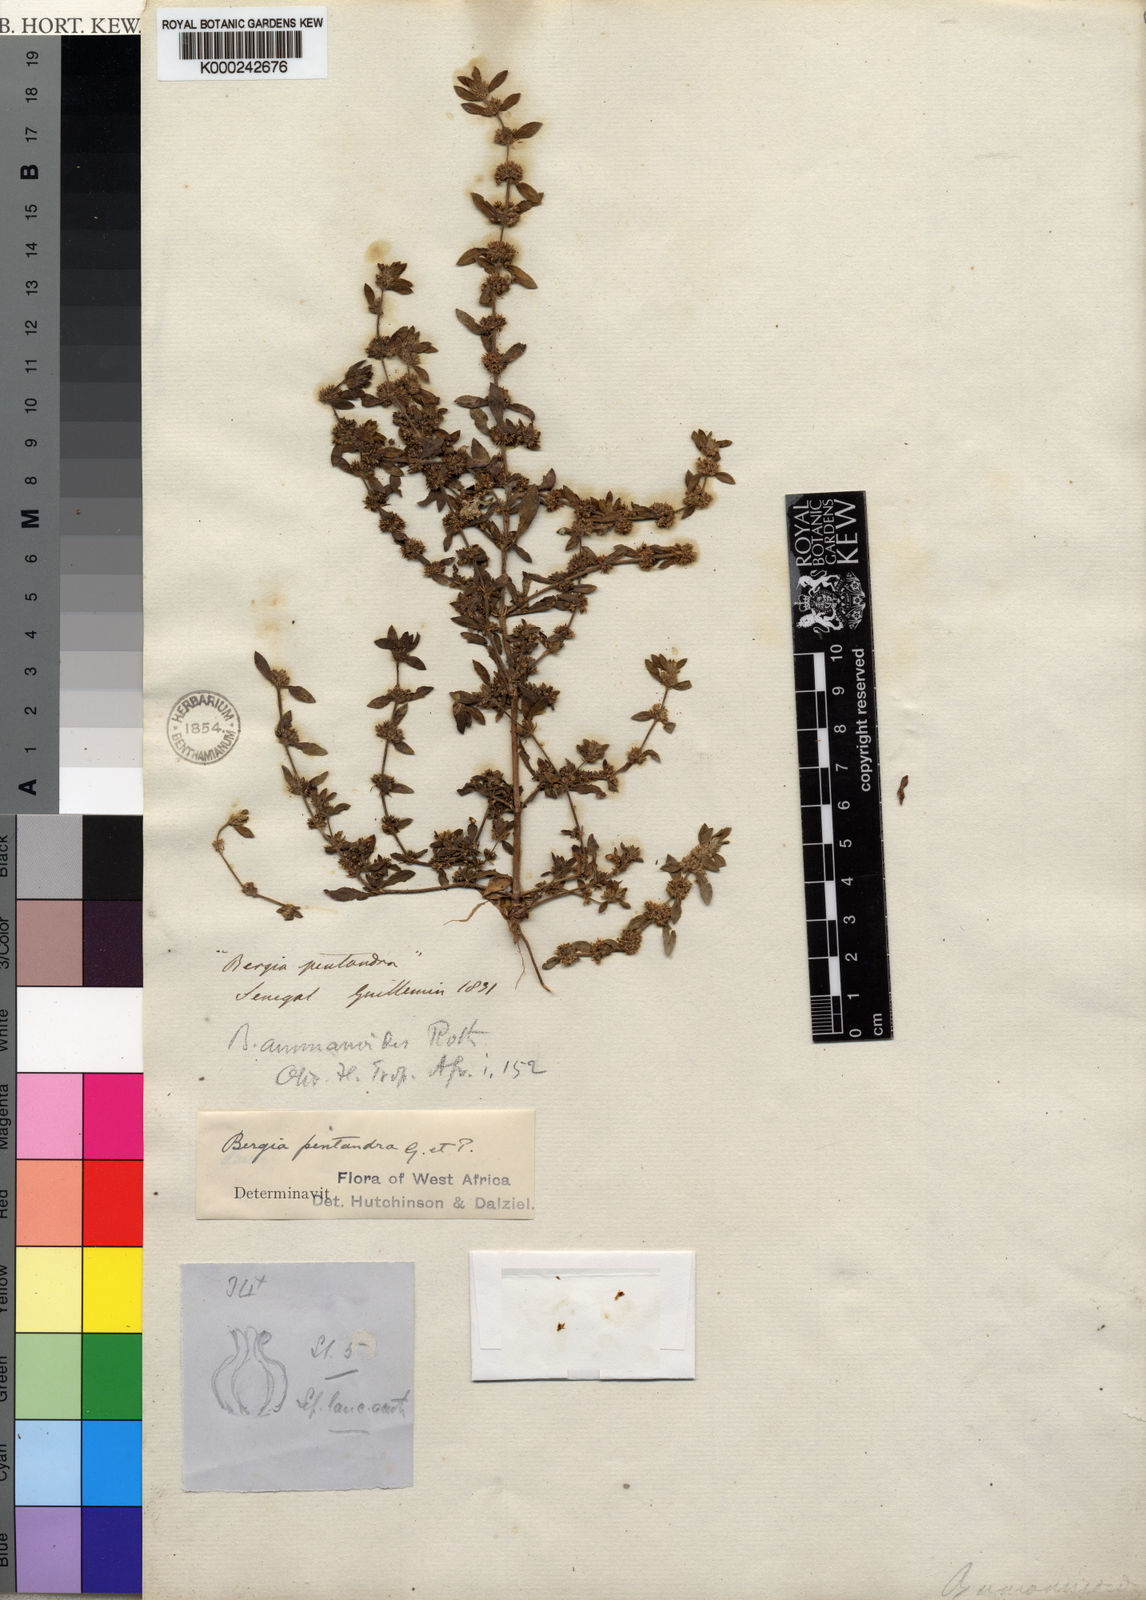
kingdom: Plantae
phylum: Tracheophyta
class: Magnoliopsida
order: Malpighiales
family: Elatinaceae
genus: Bergia
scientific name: Bergia ammannioides
